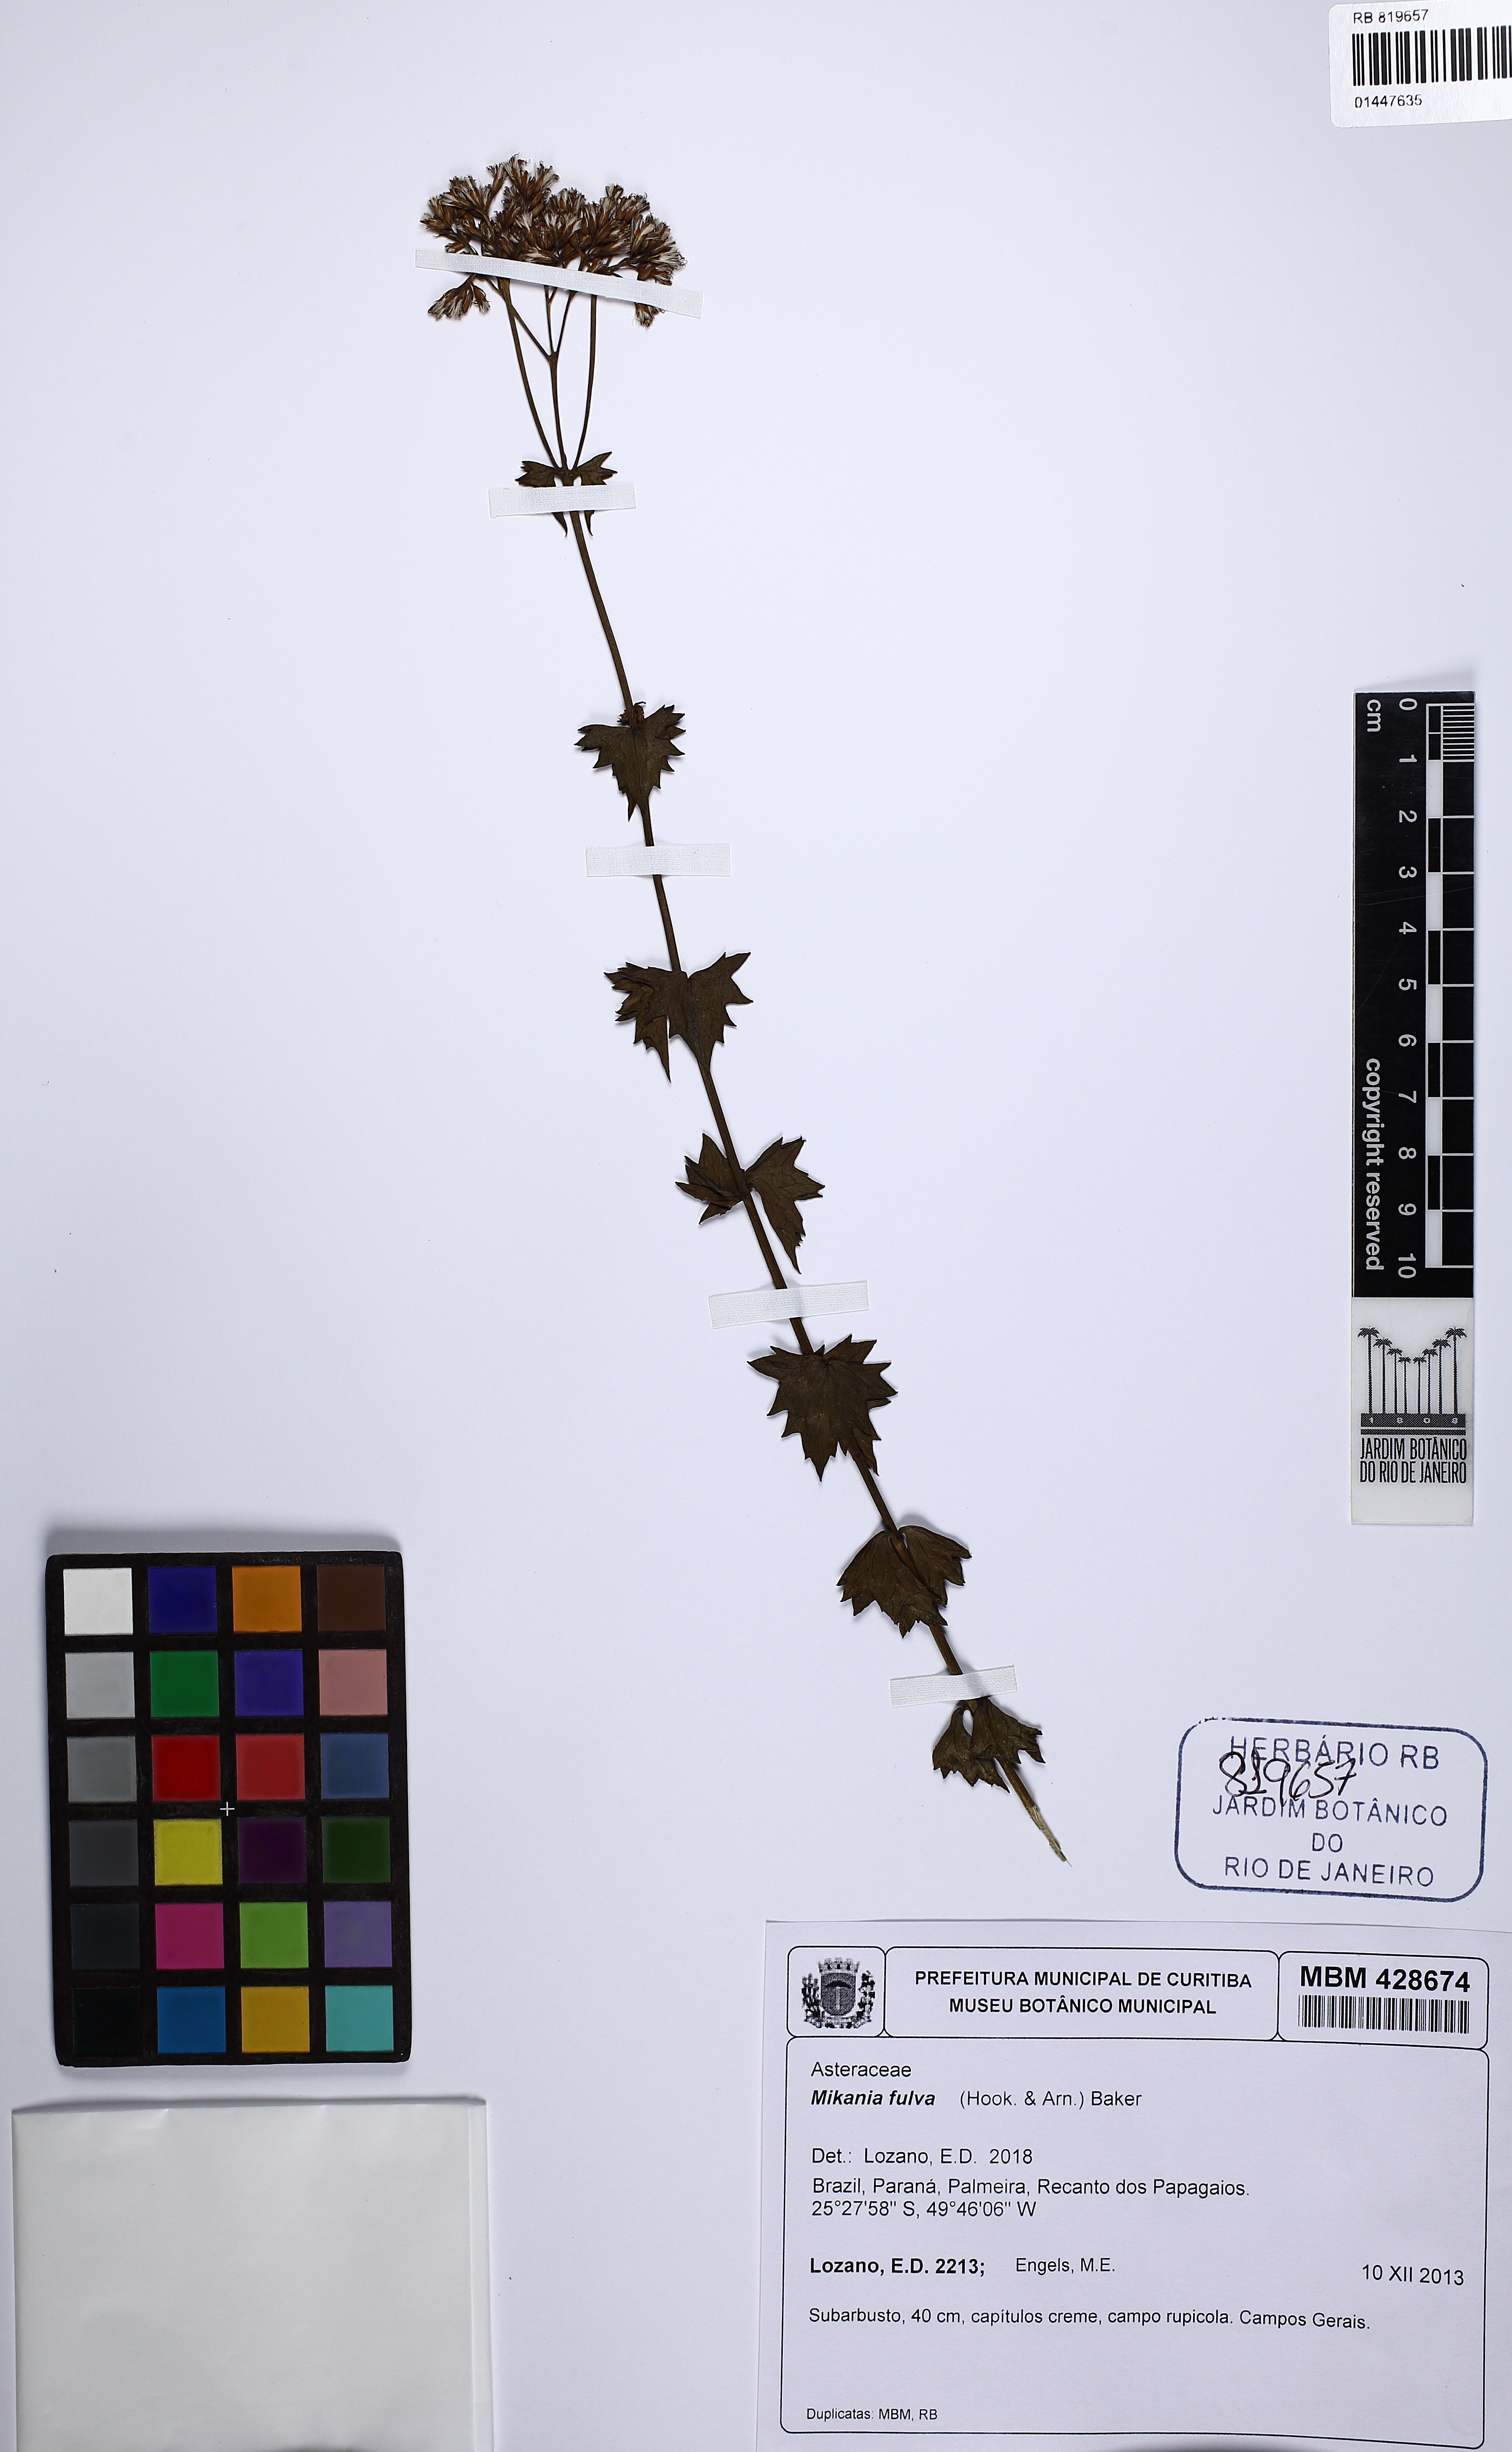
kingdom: Plantae
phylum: Tracheophyta
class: Magnoliopsida
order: Asterales
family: Asteraceae
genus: Mikania
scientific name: Mikania fulva
